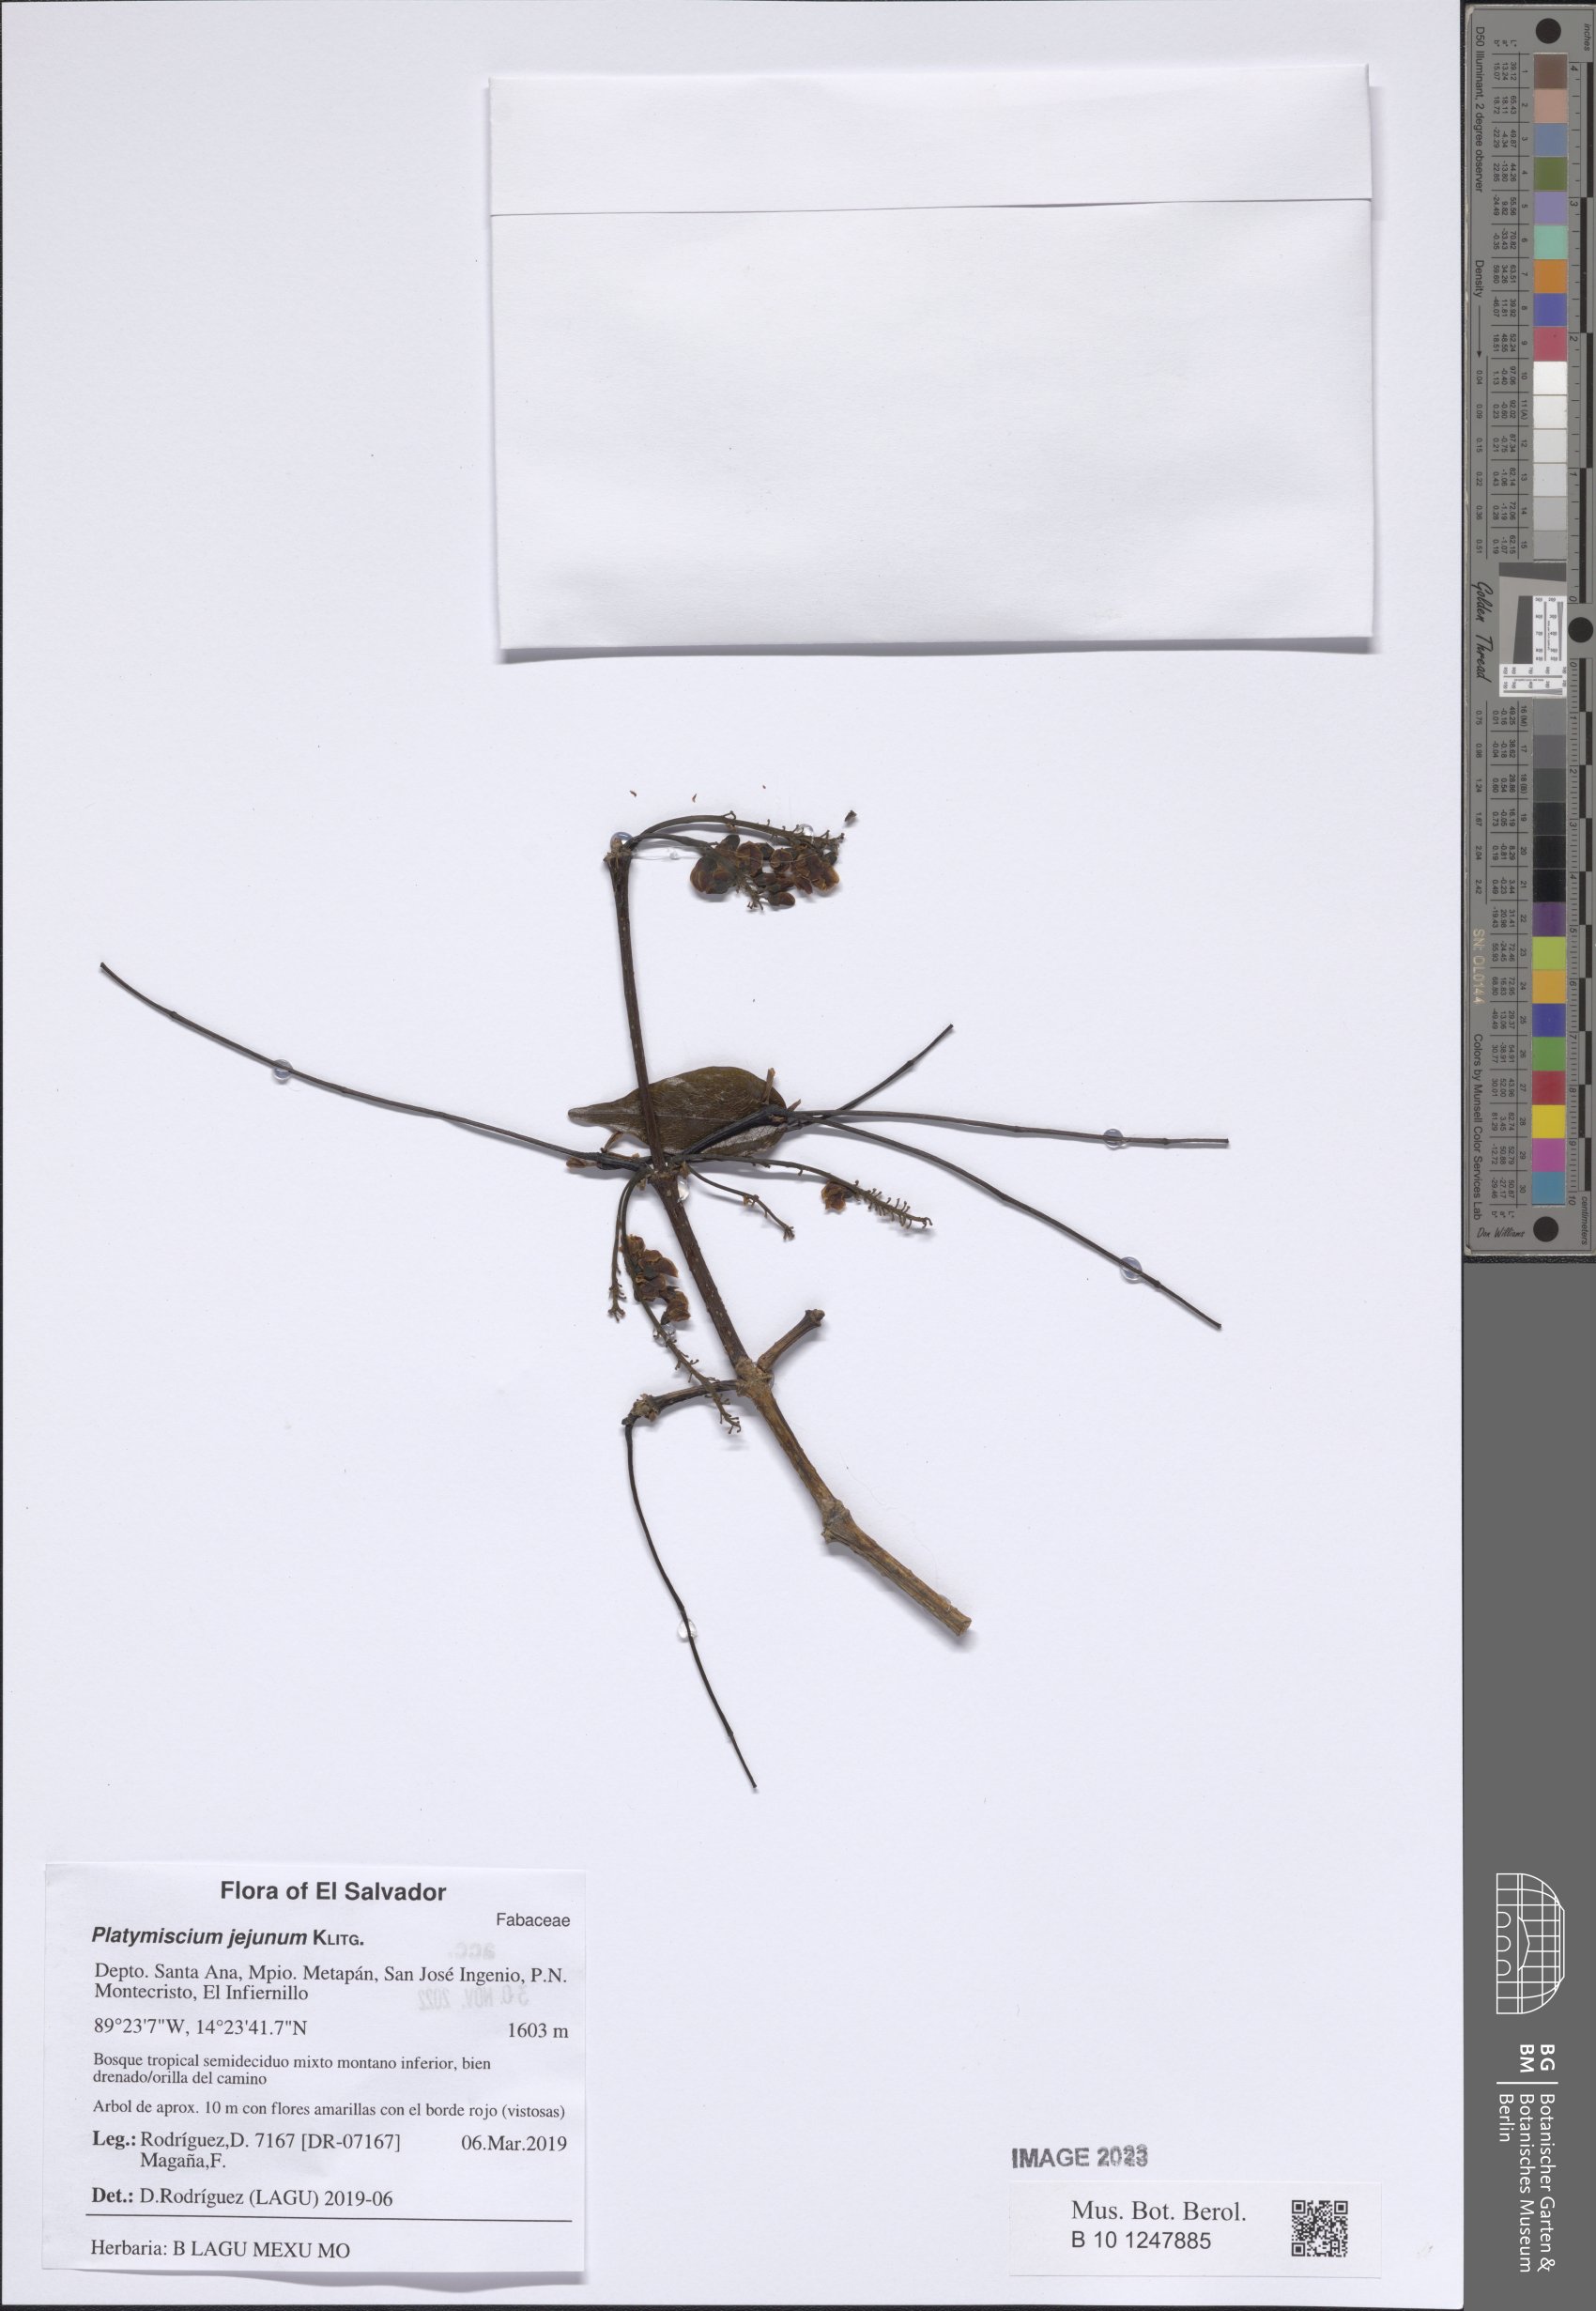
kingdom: Plantae
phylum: Tracheophyta
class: Magnoliopsida
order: Fabales
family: Fabaceae
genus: Platymiscium
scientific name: Platymiscium jejunum
